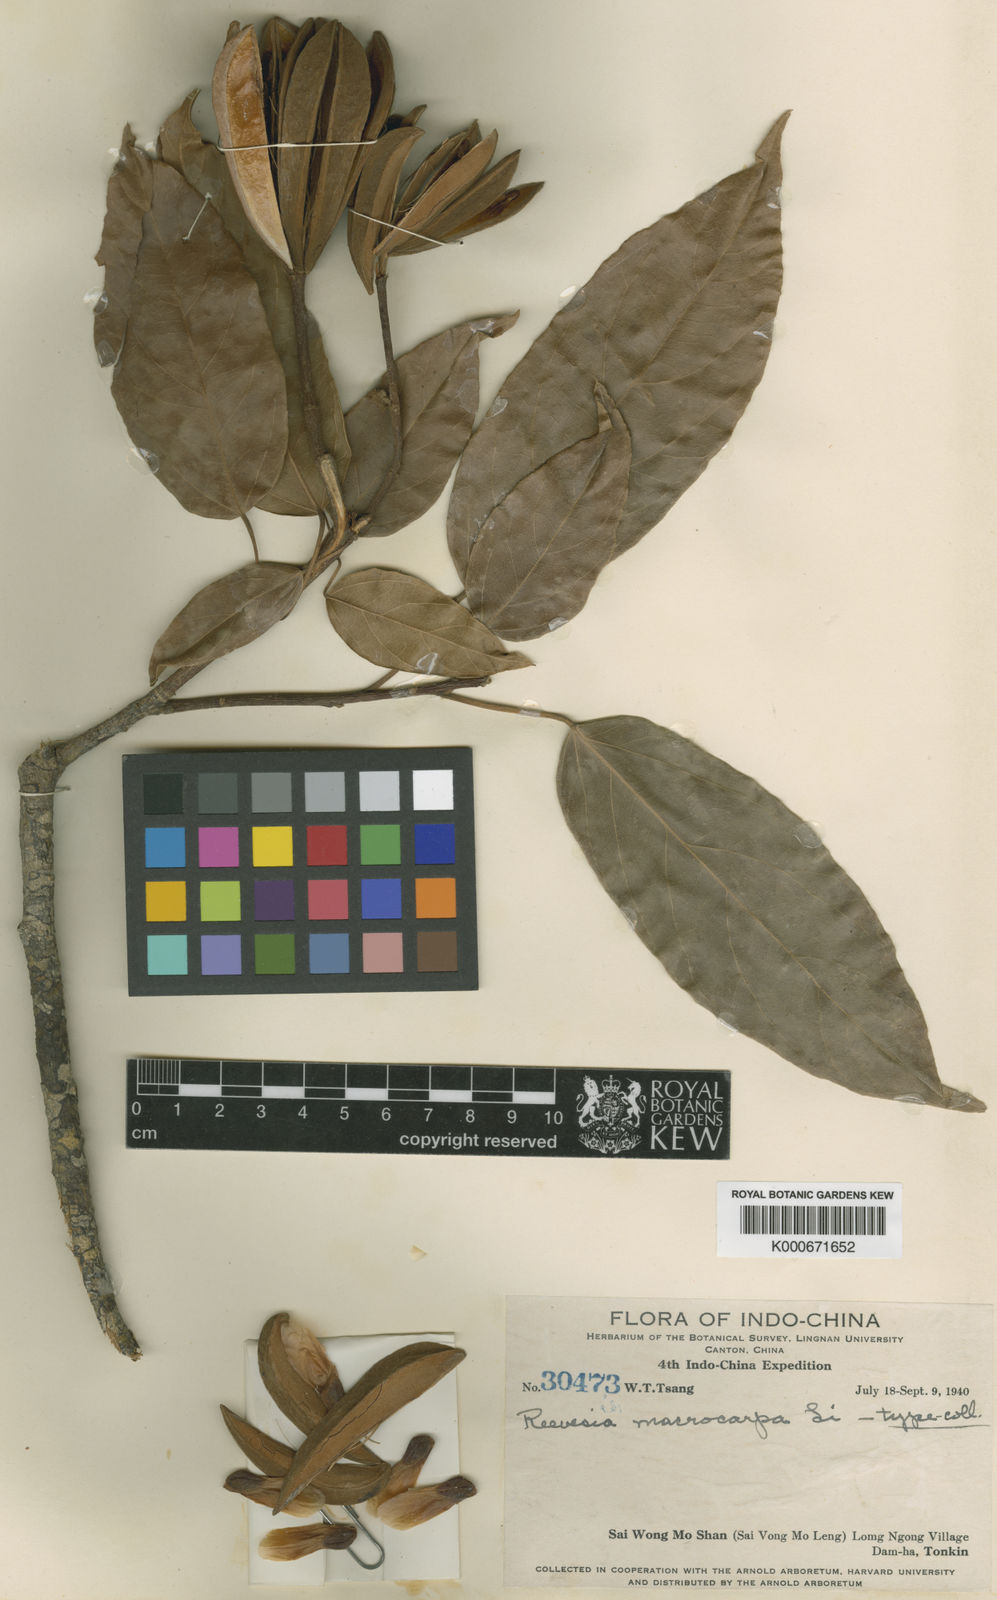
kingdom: Plantae
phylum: Tracheophyta
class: Magnoliopsida
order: Malvales
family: Malvaceae
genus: Reevesia
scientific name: Reevesia thyrsoidea
